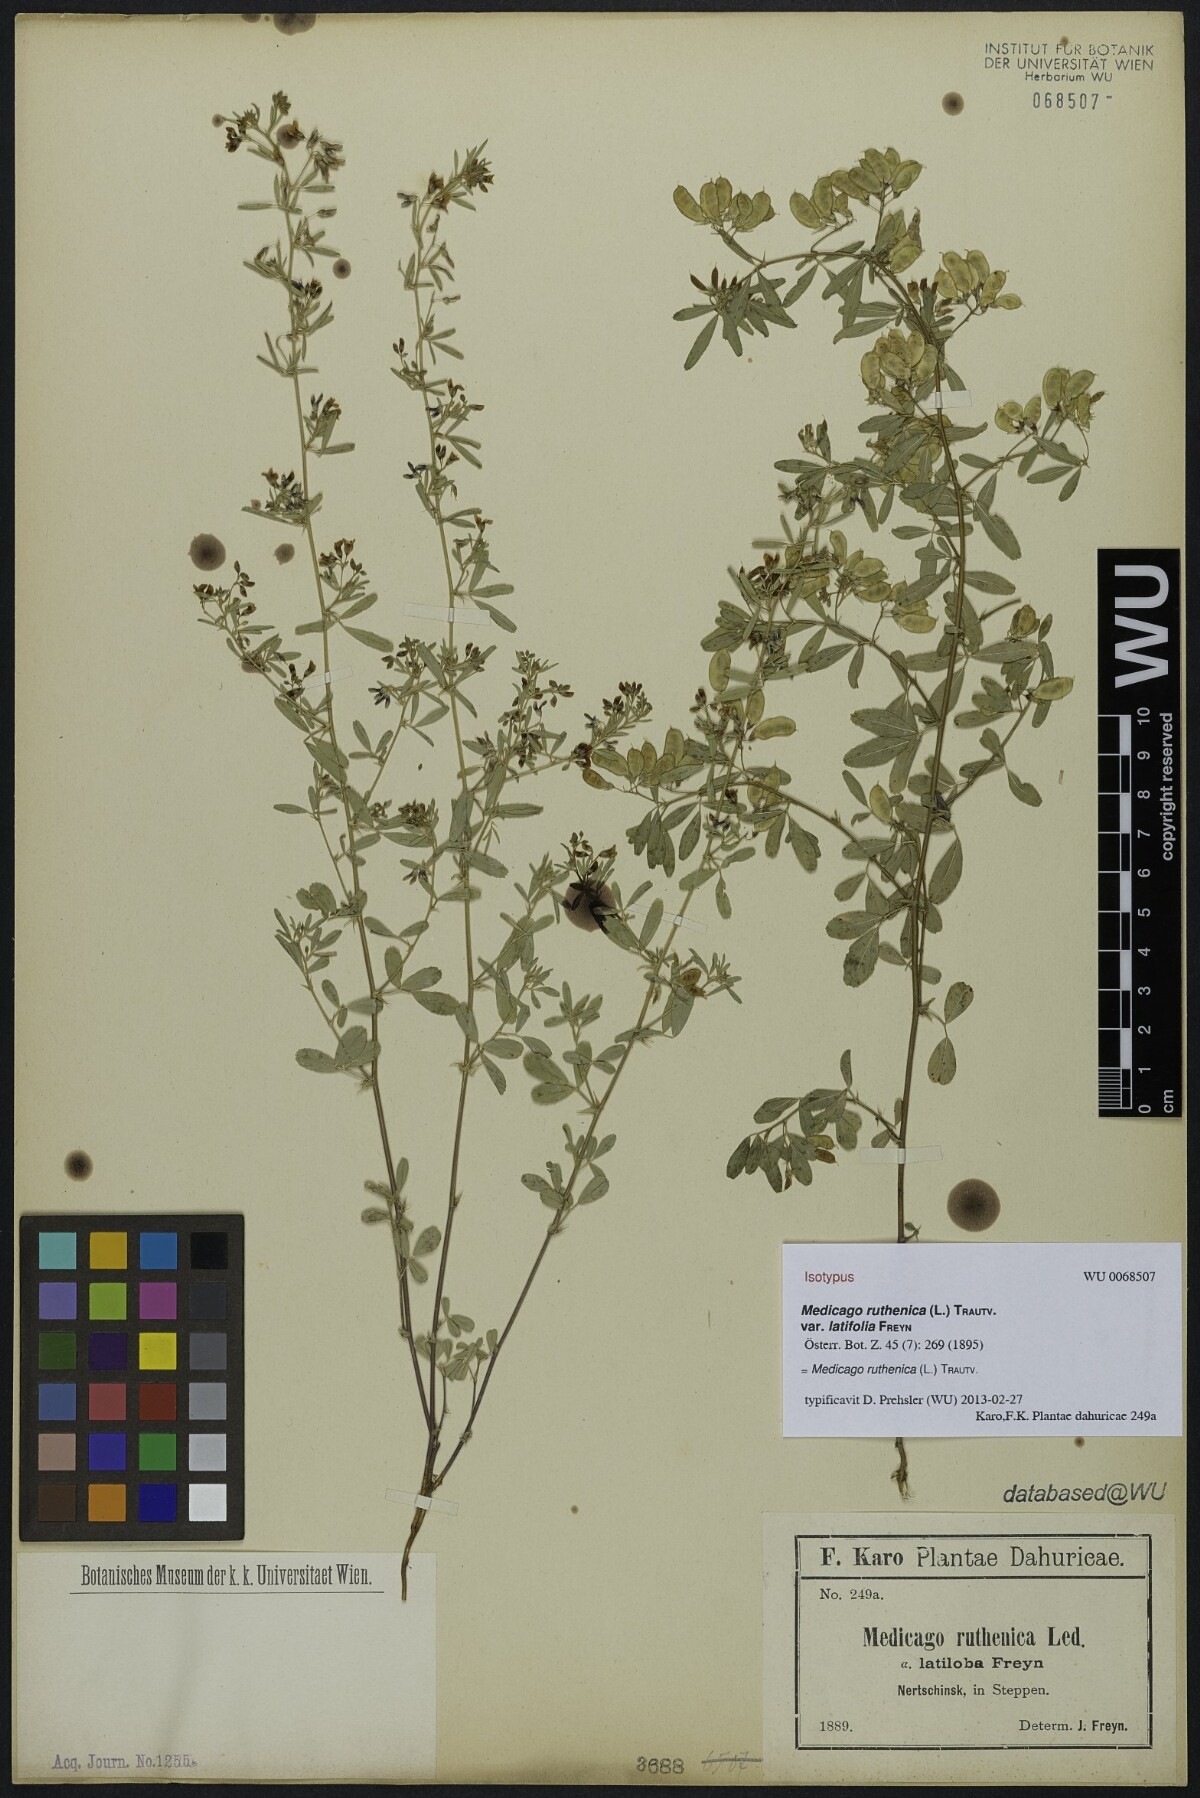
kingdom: Plantae
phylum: Tracheophyta
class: Magnoliopsida
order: Fabales
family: Fabaceae
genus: Medicago
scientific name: Medicago ruthenica
